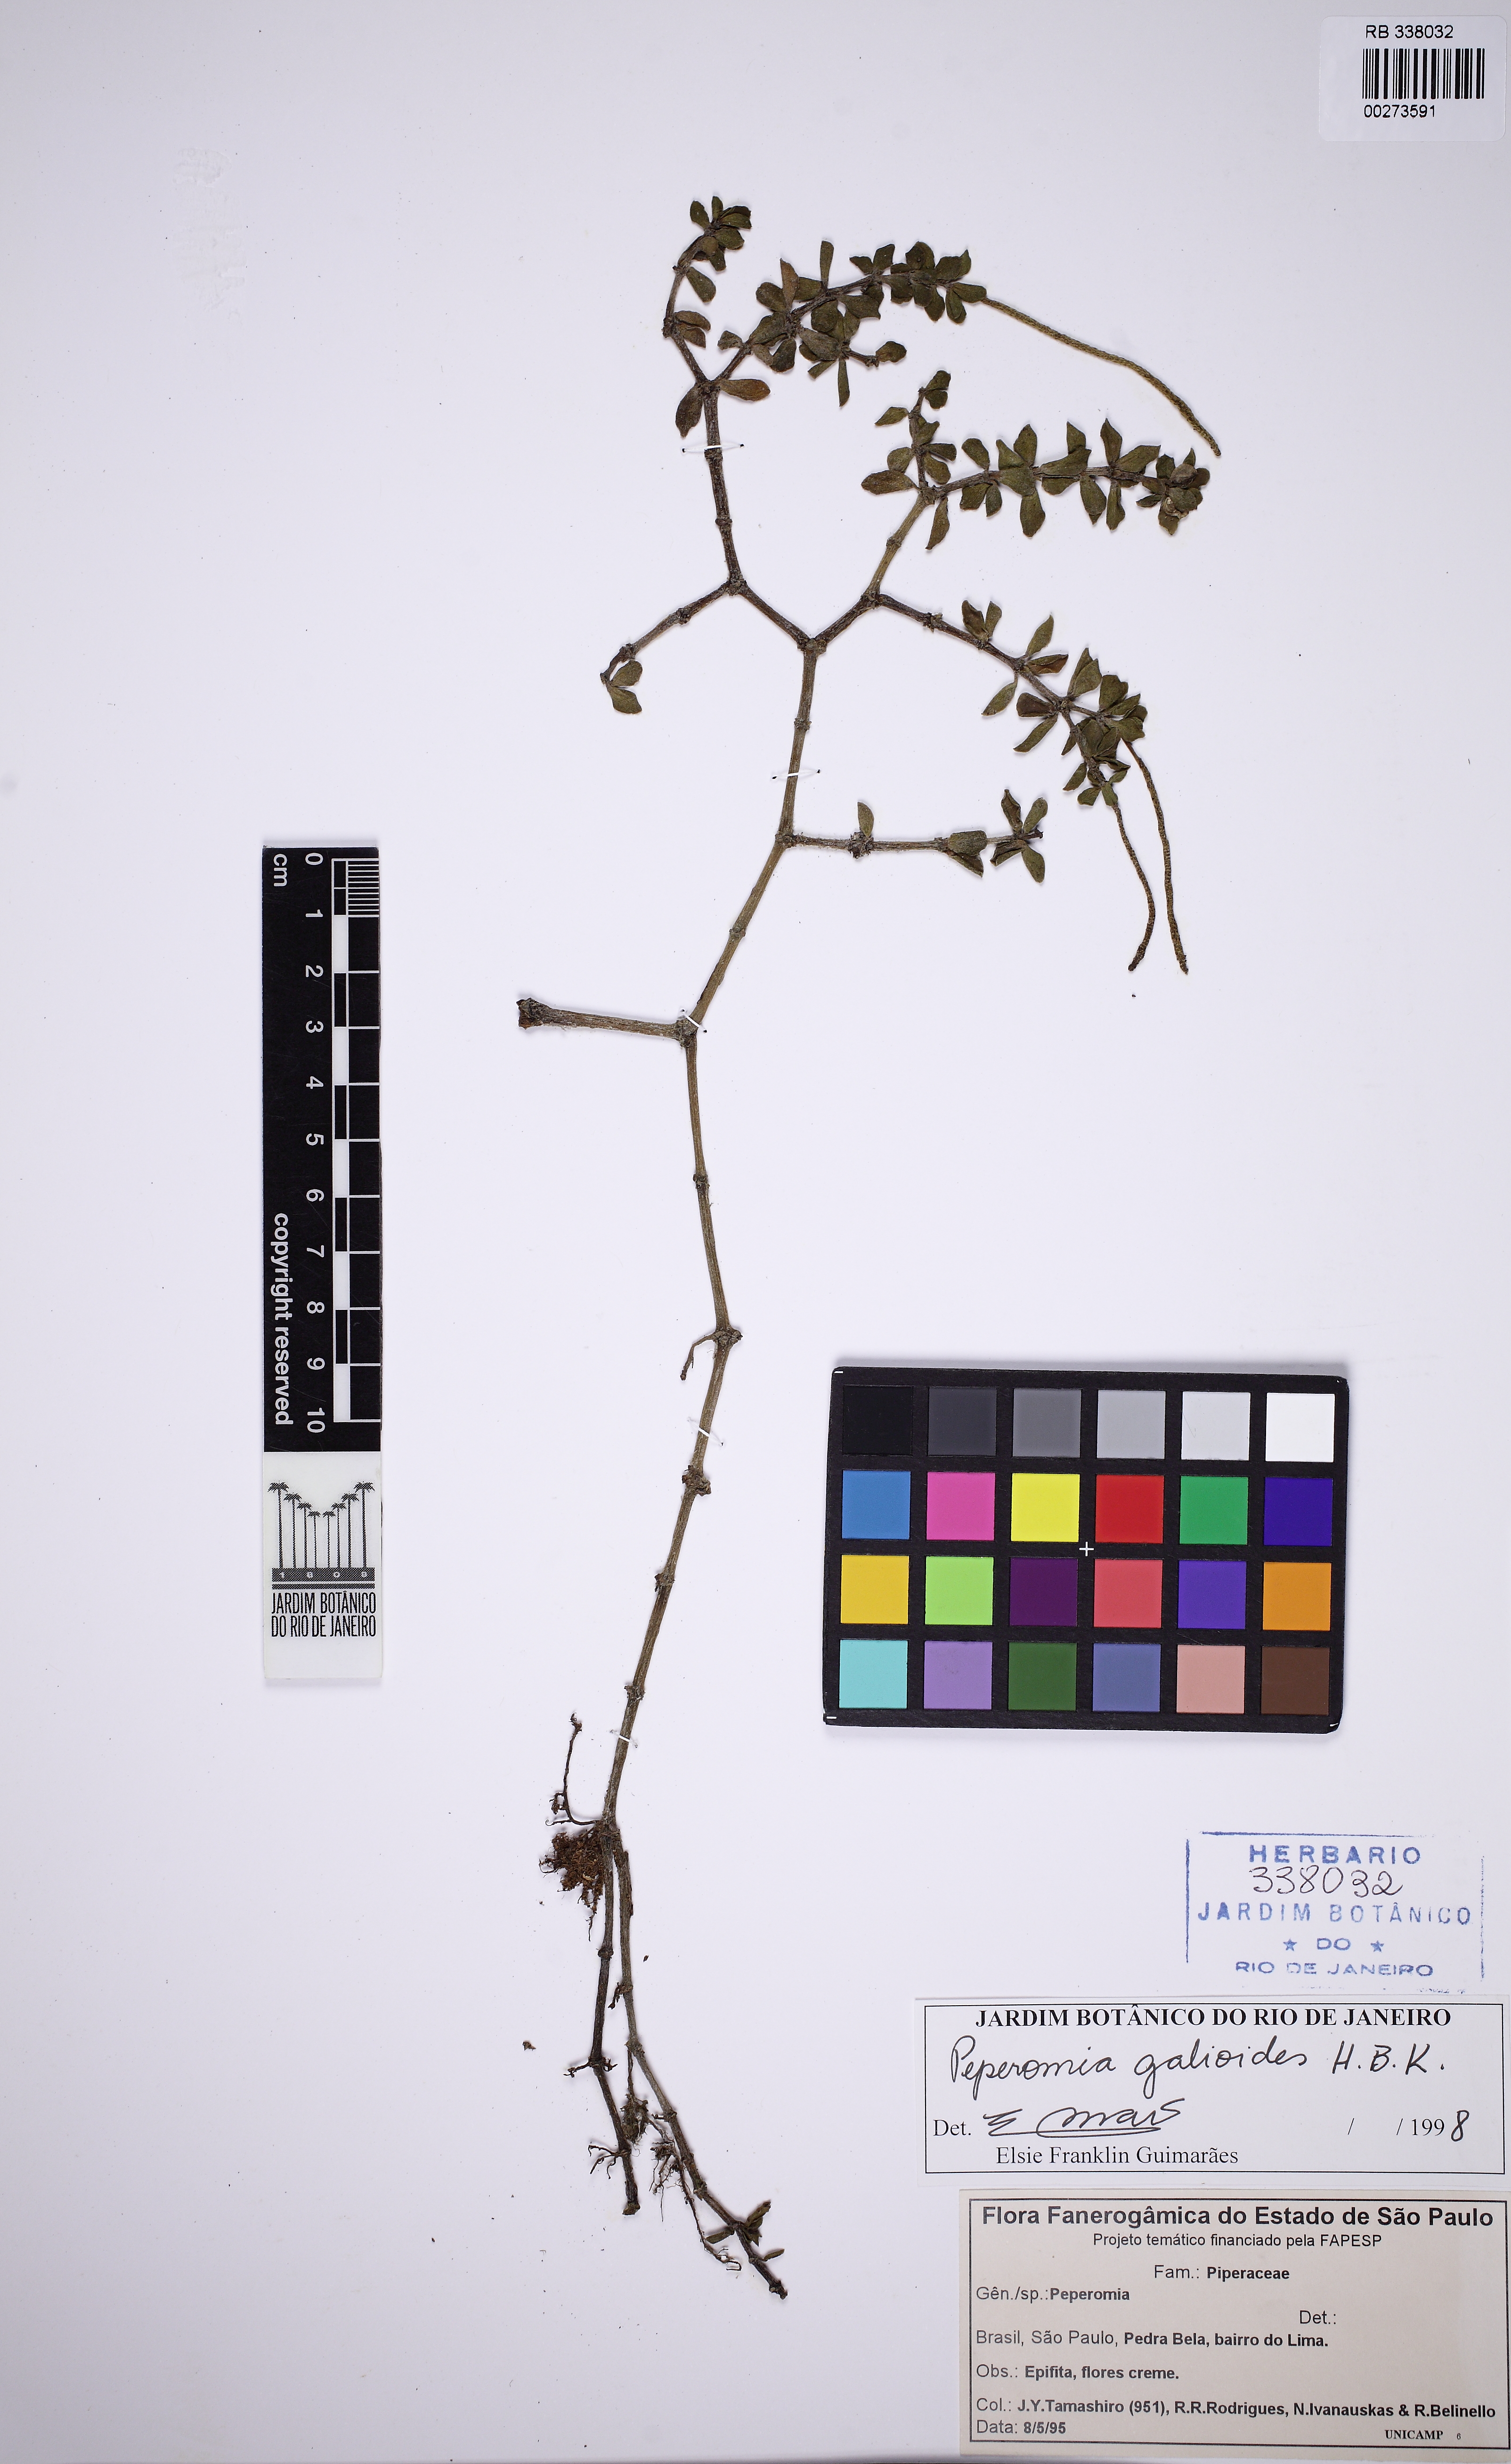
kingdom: Plantae
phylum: Tracheophyta
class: Magnoliopsida
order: Piperales
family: Piperaceae
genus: Peperomia
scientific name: Peperomia galioides
